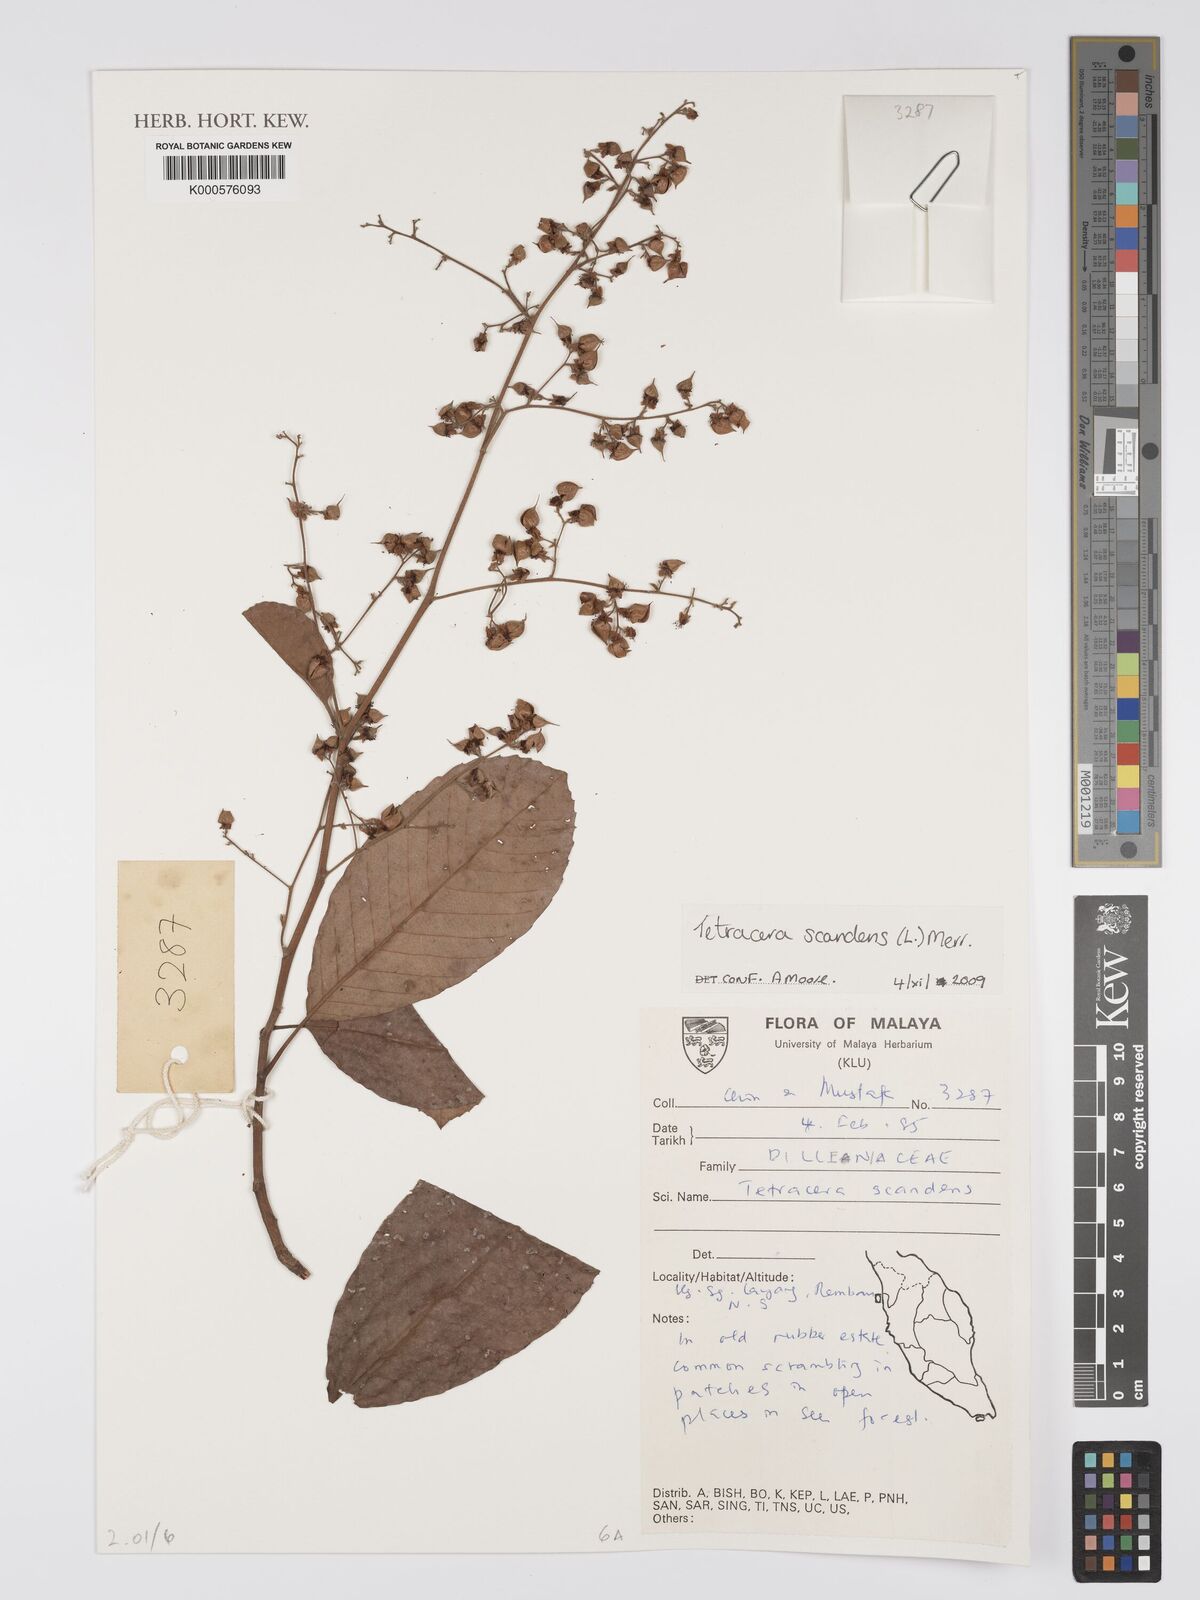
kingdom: Plantae
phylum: Tracheophyta
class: Magnoliopsida
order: Dilleniales
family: Dilleniaceae
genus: Tetracera
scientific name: Tetracera scandens
